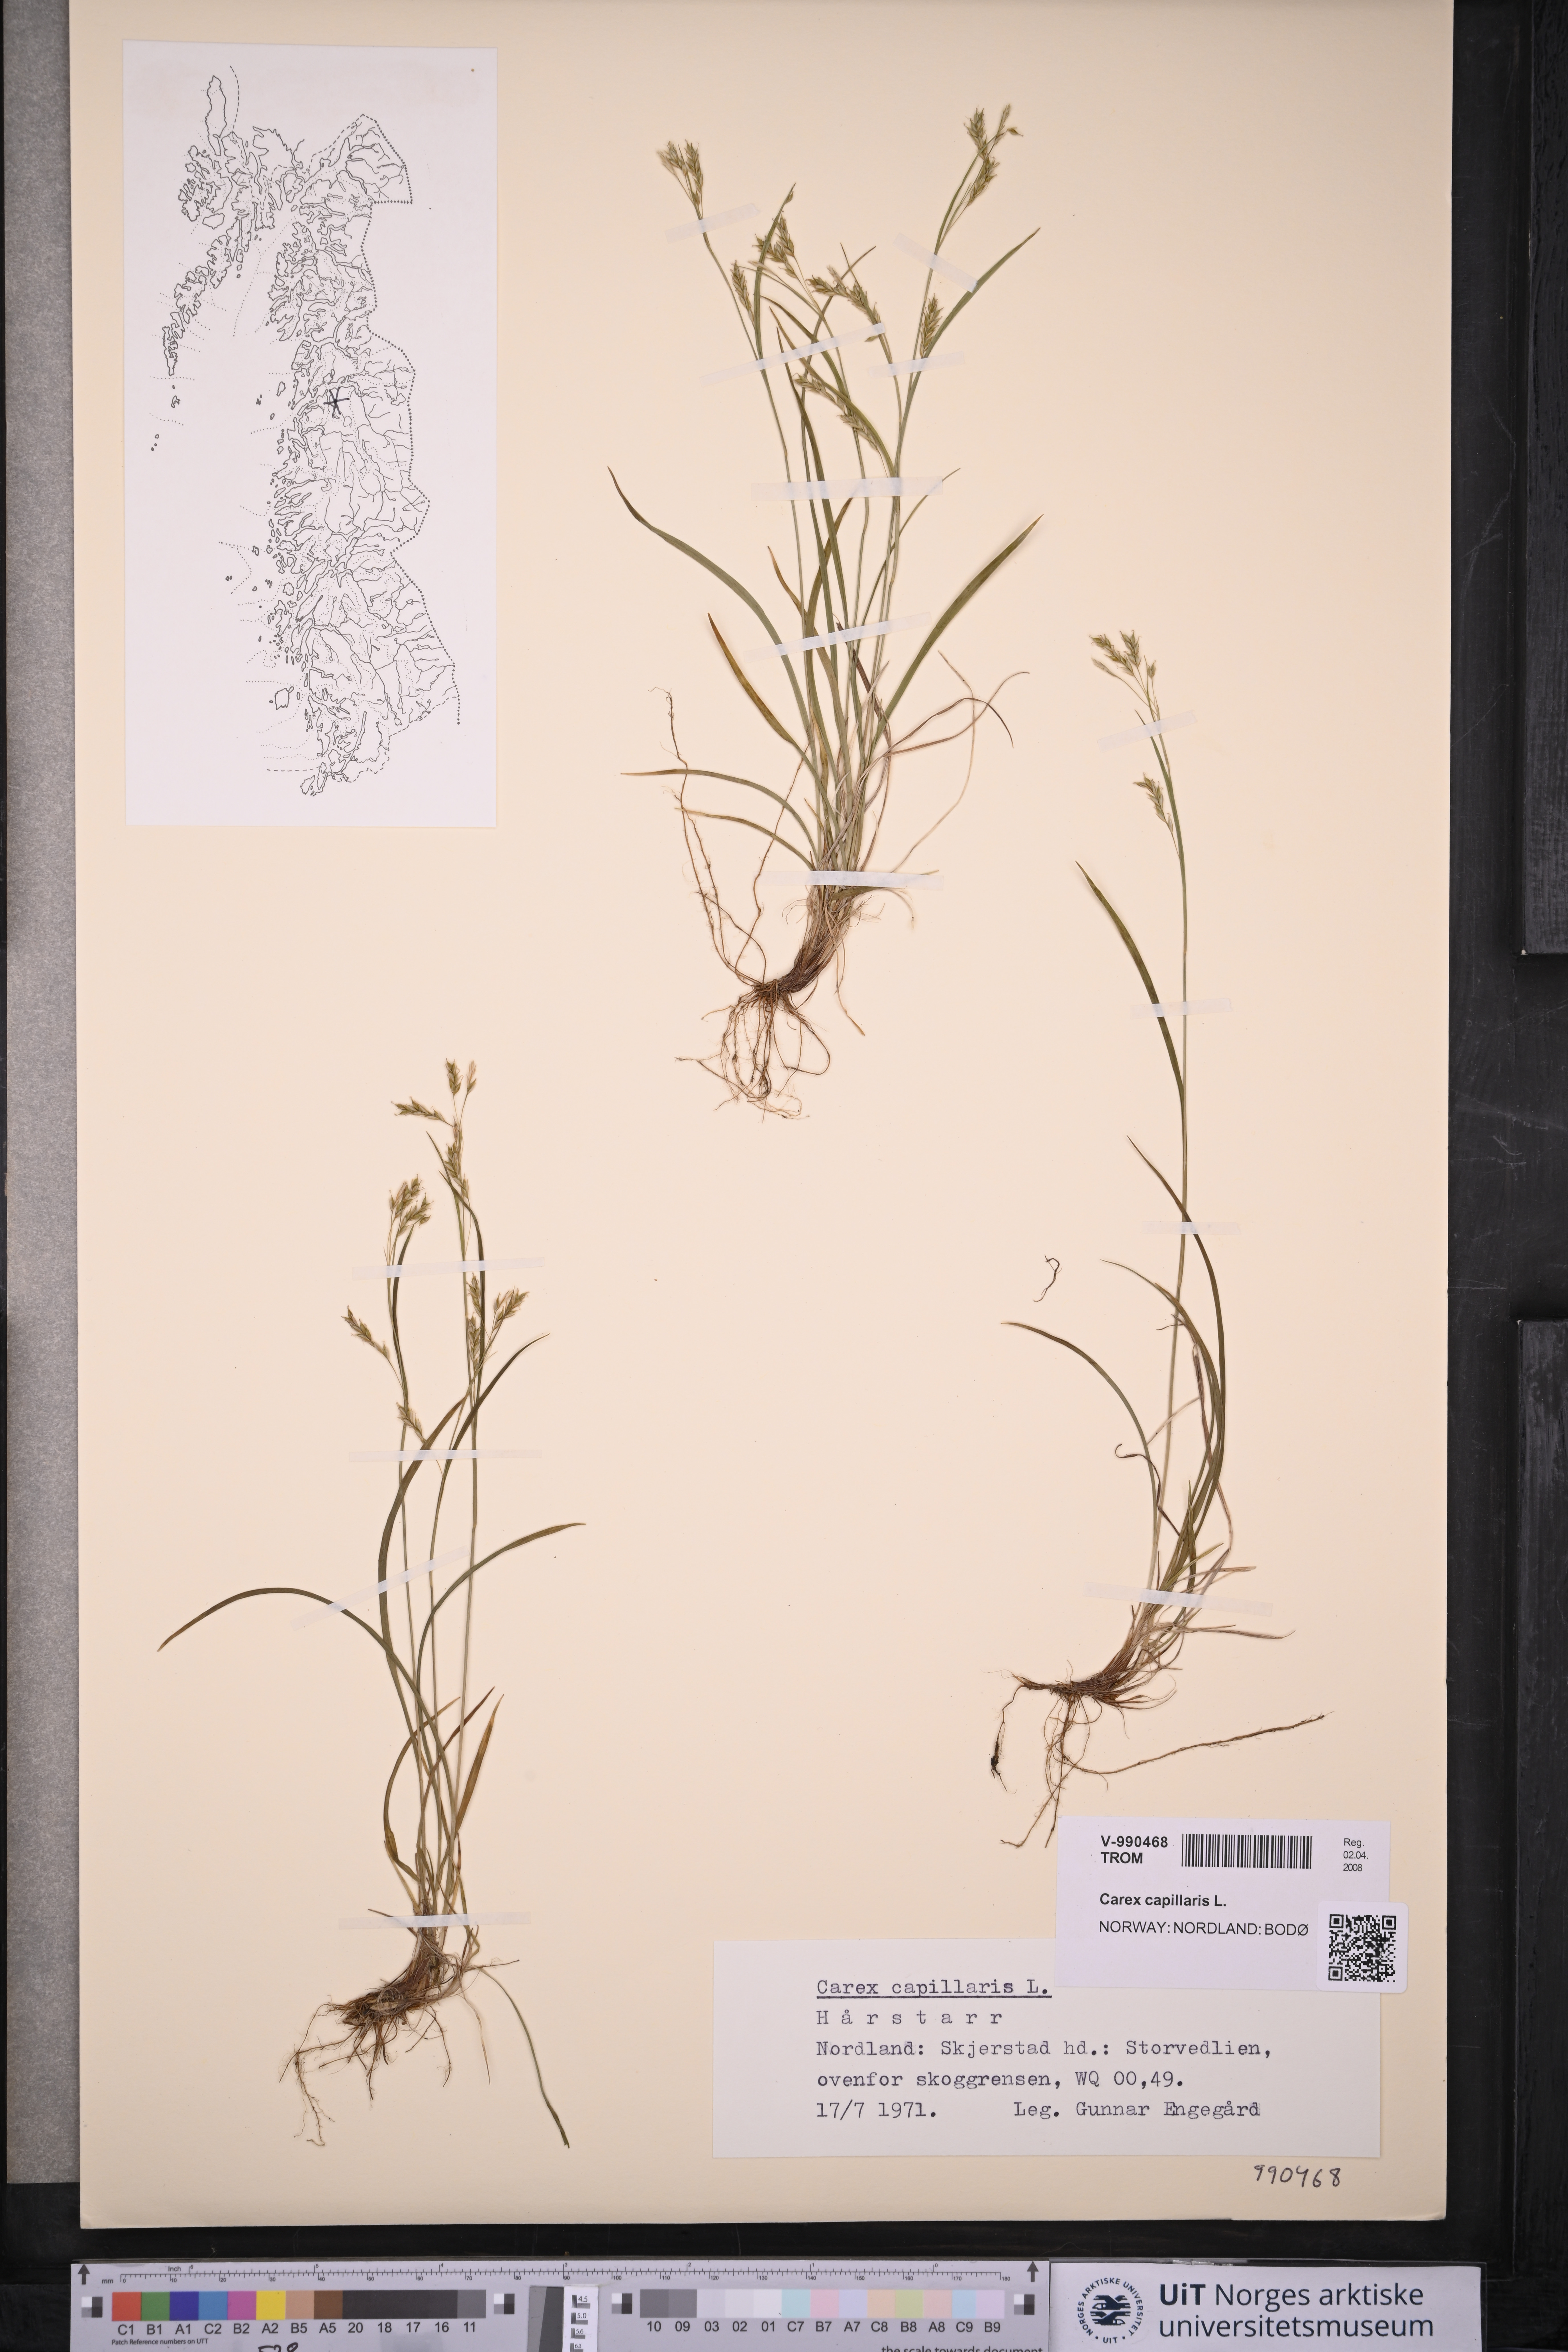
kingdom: Plantae
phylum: Tracheophyta
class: Liliopsida
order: Poales
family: Cyperaceae
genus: Carex
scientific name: Carex capillaris
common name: Hair sedge
